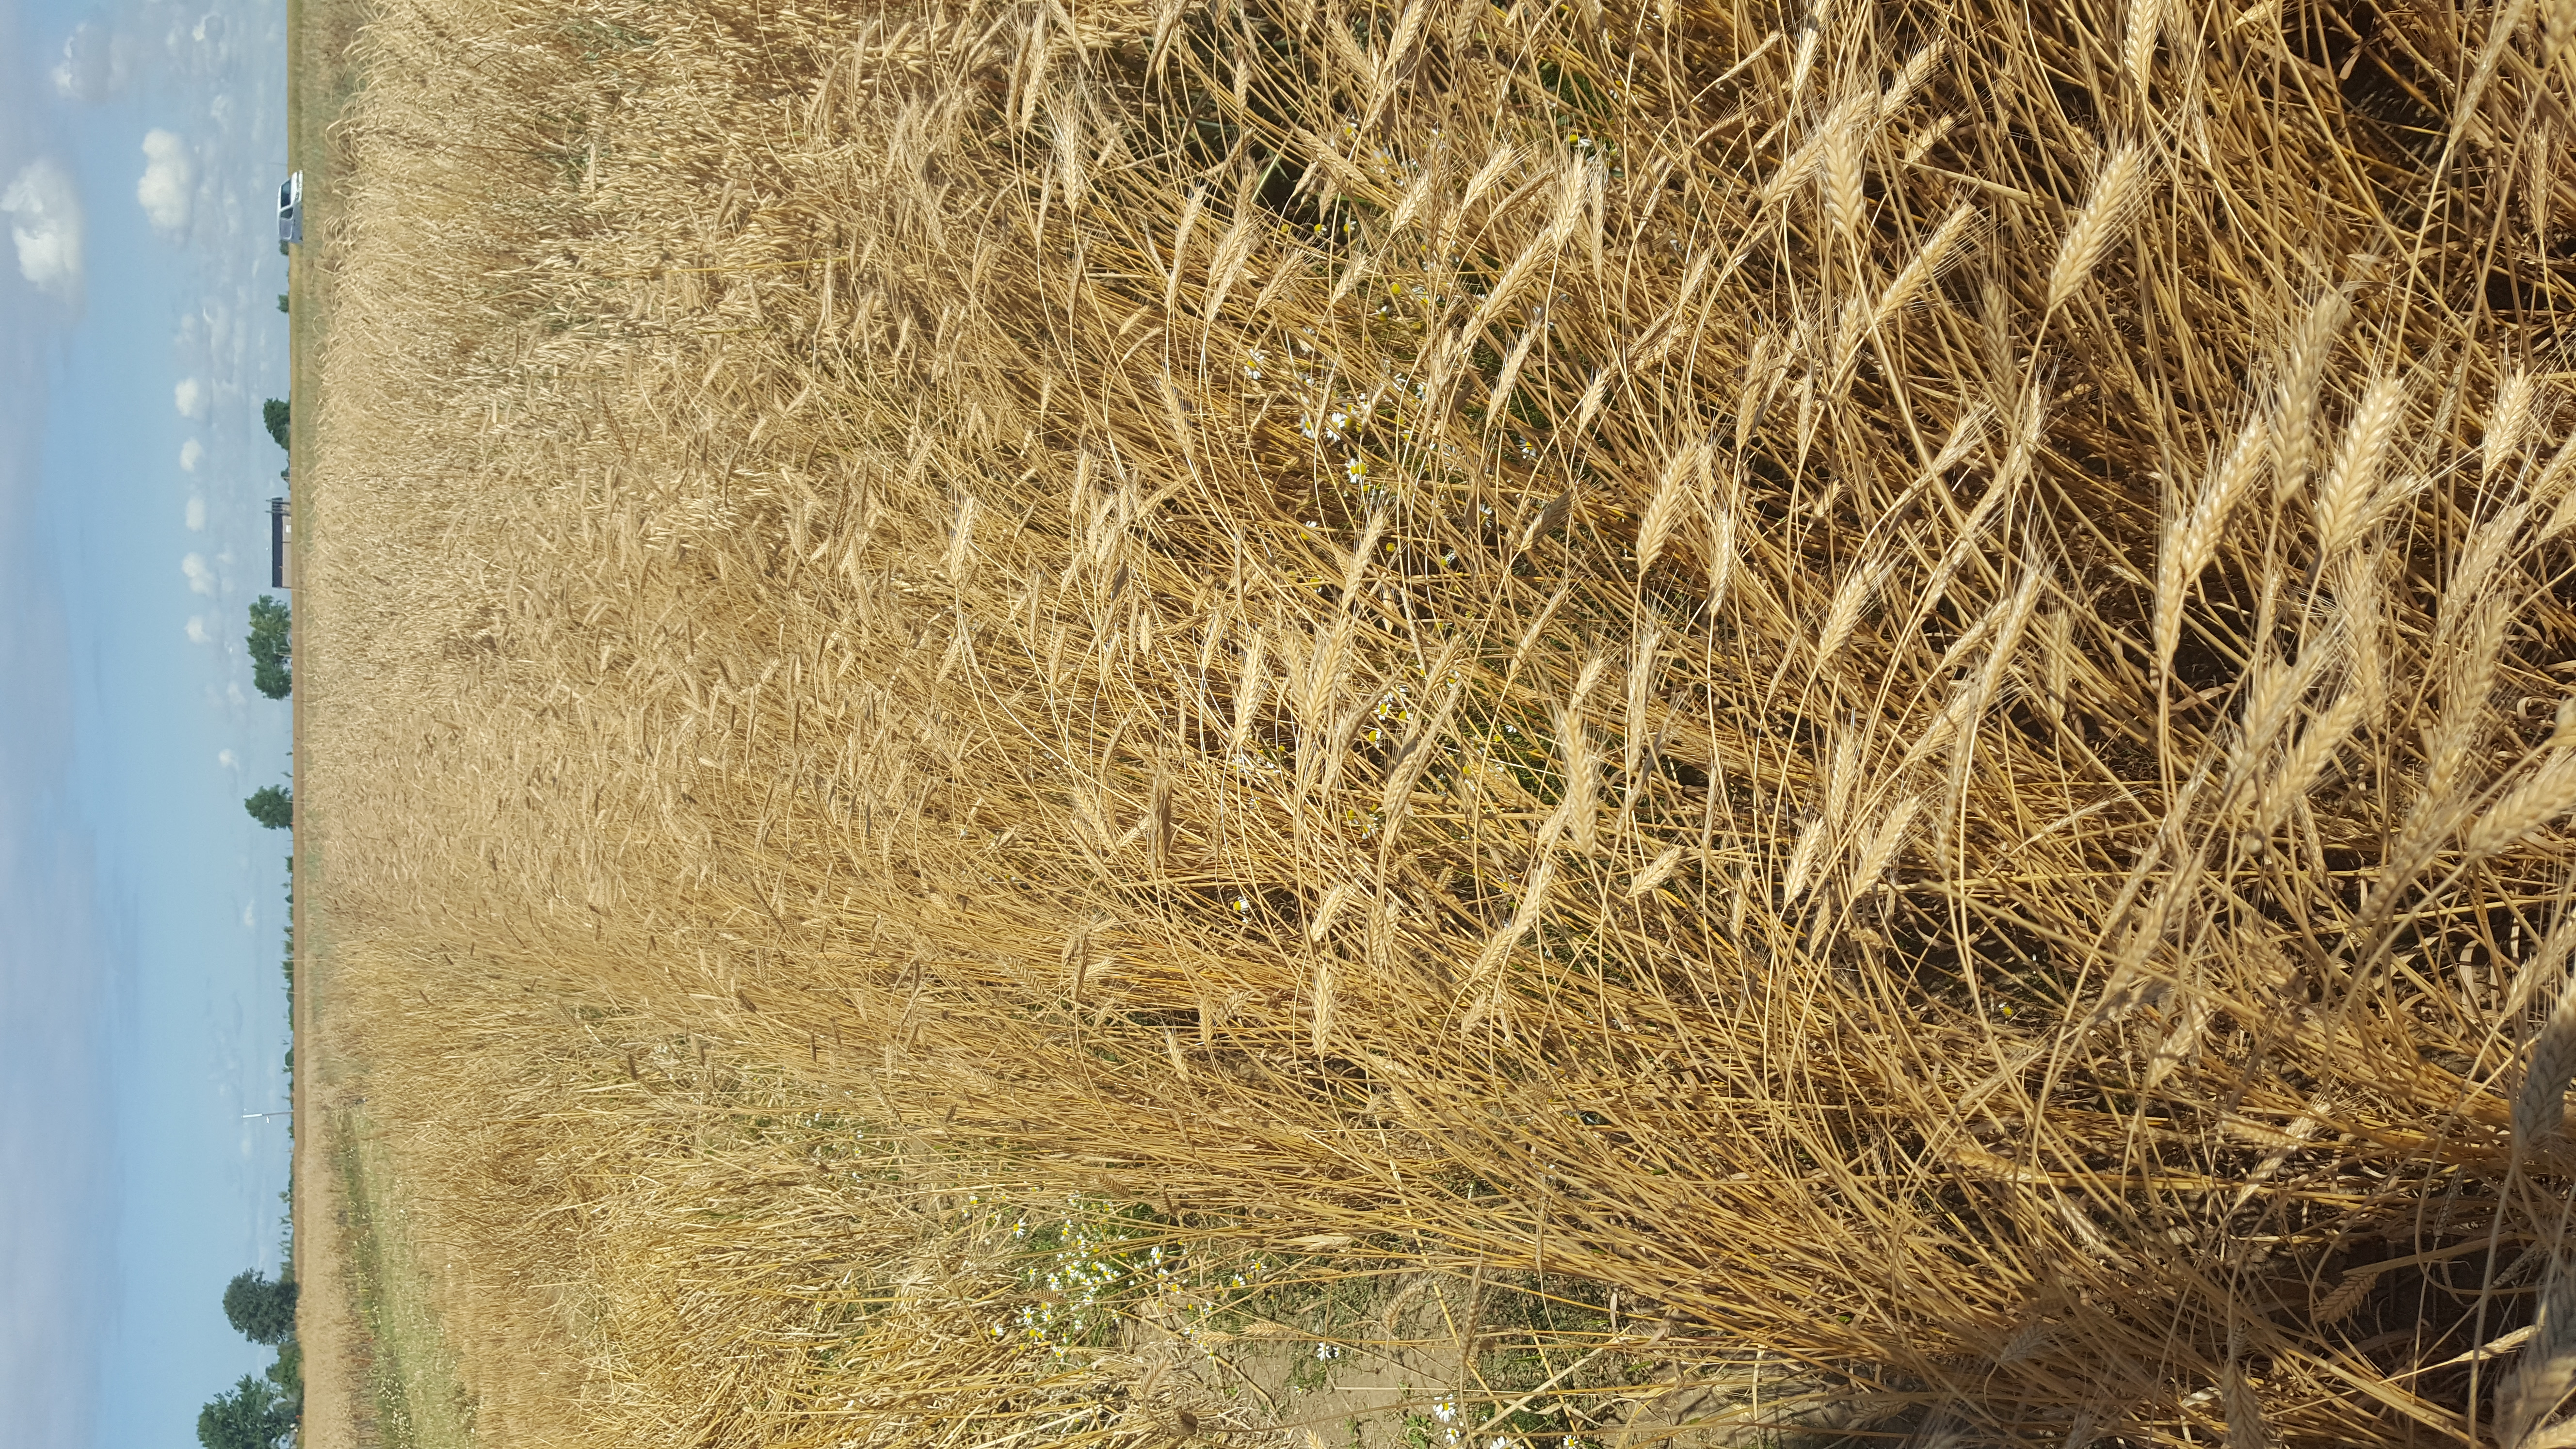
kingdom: Plantae
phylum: Tracheophyta
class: Liliopsida
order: Poales
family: Poaceae
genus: Triticum
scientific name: Triticum monococcum
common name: Einkorn
